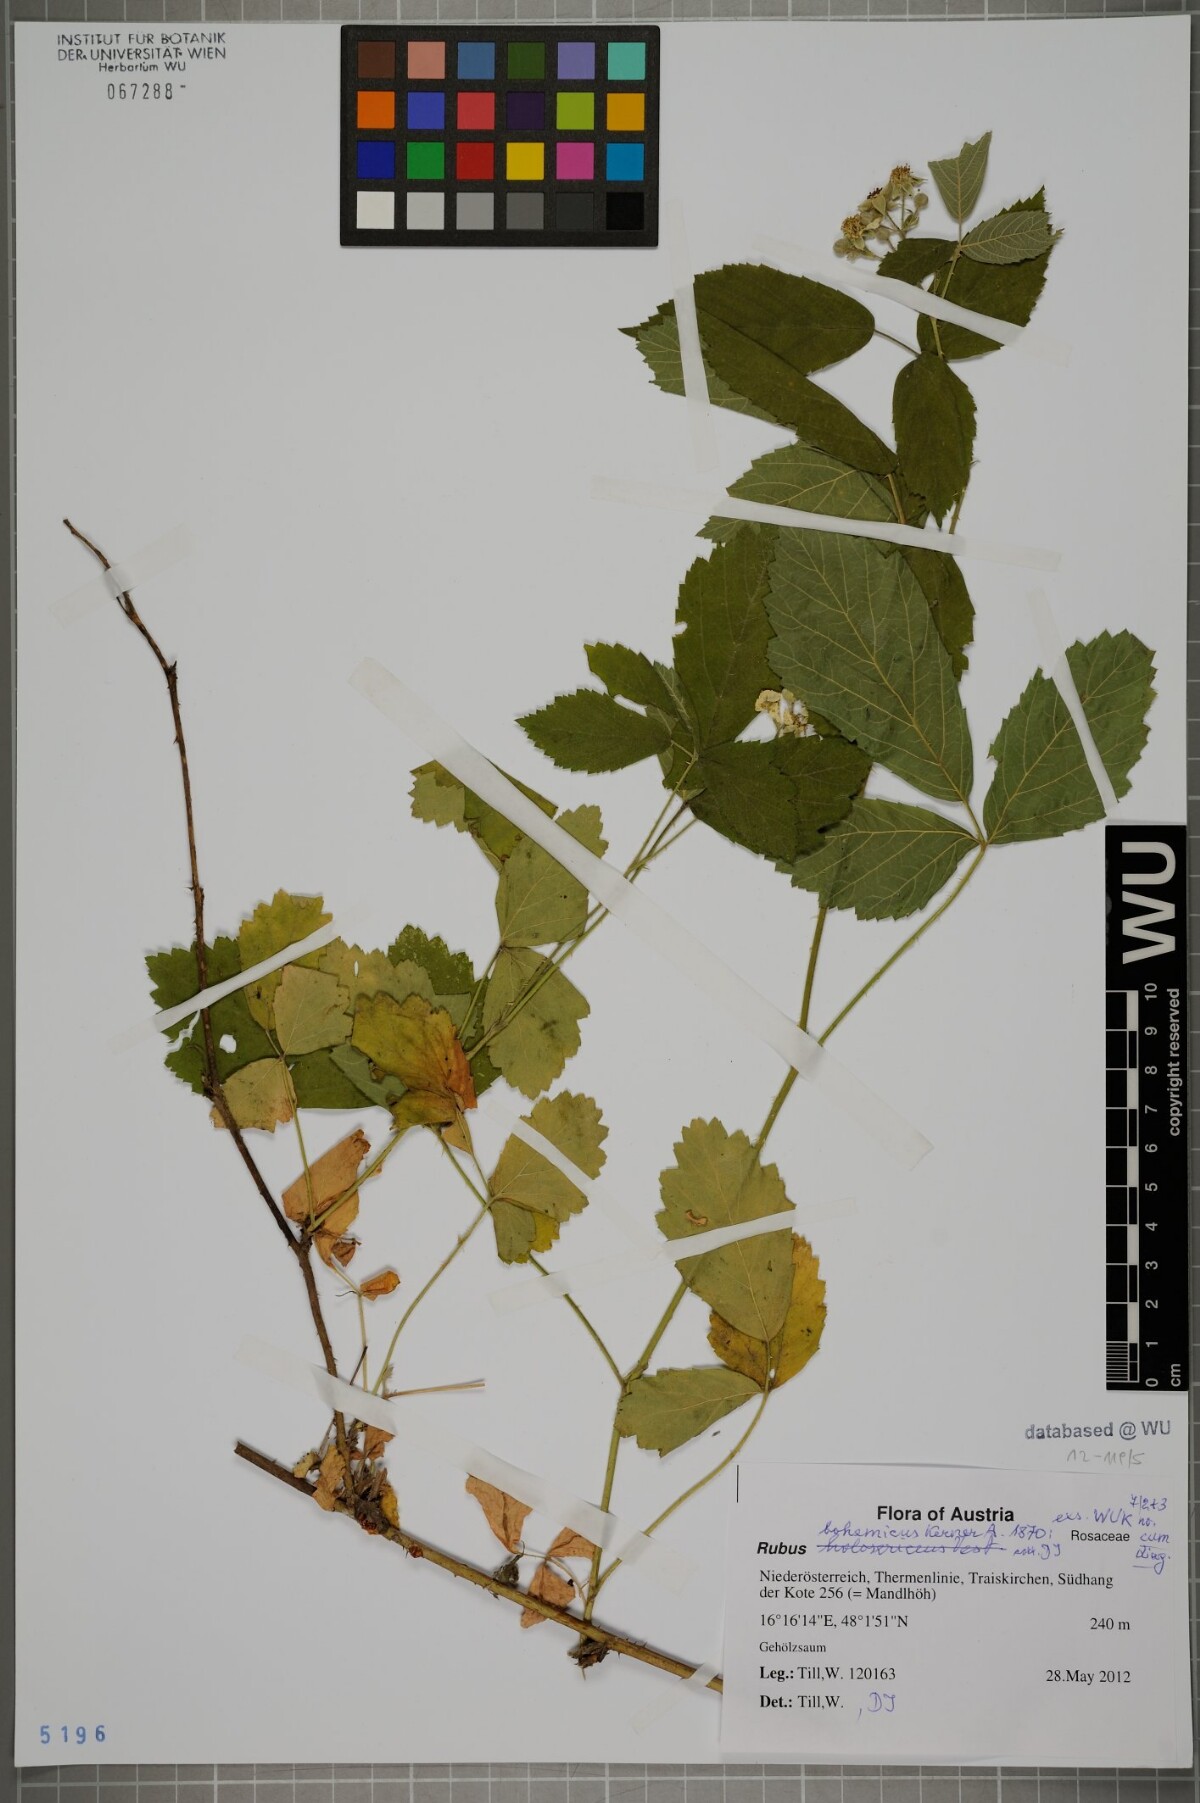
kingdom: Plantae
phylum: Tracheophyta
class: Magnoliopsida
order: Rosales
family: Rosaceae
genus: Rubus
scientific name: Rubus
